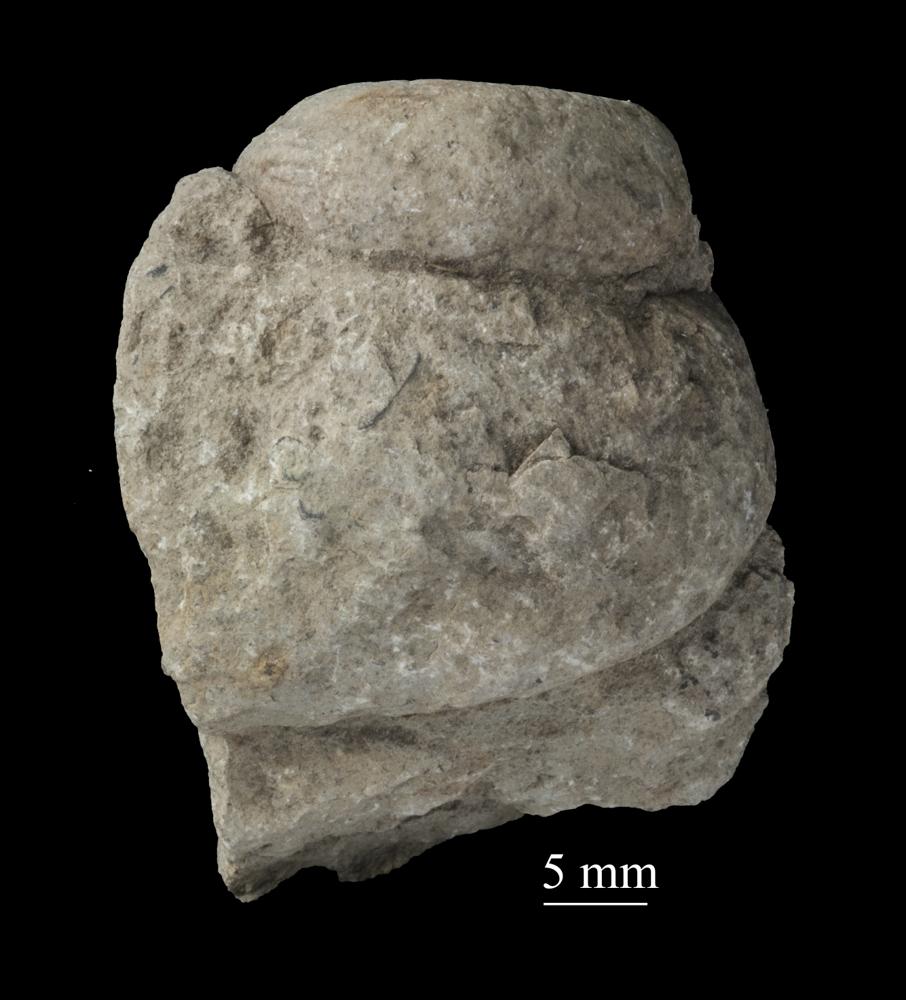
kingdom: Animalia
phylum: Mollusca
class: Gastropoda
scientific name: Gastropoda
